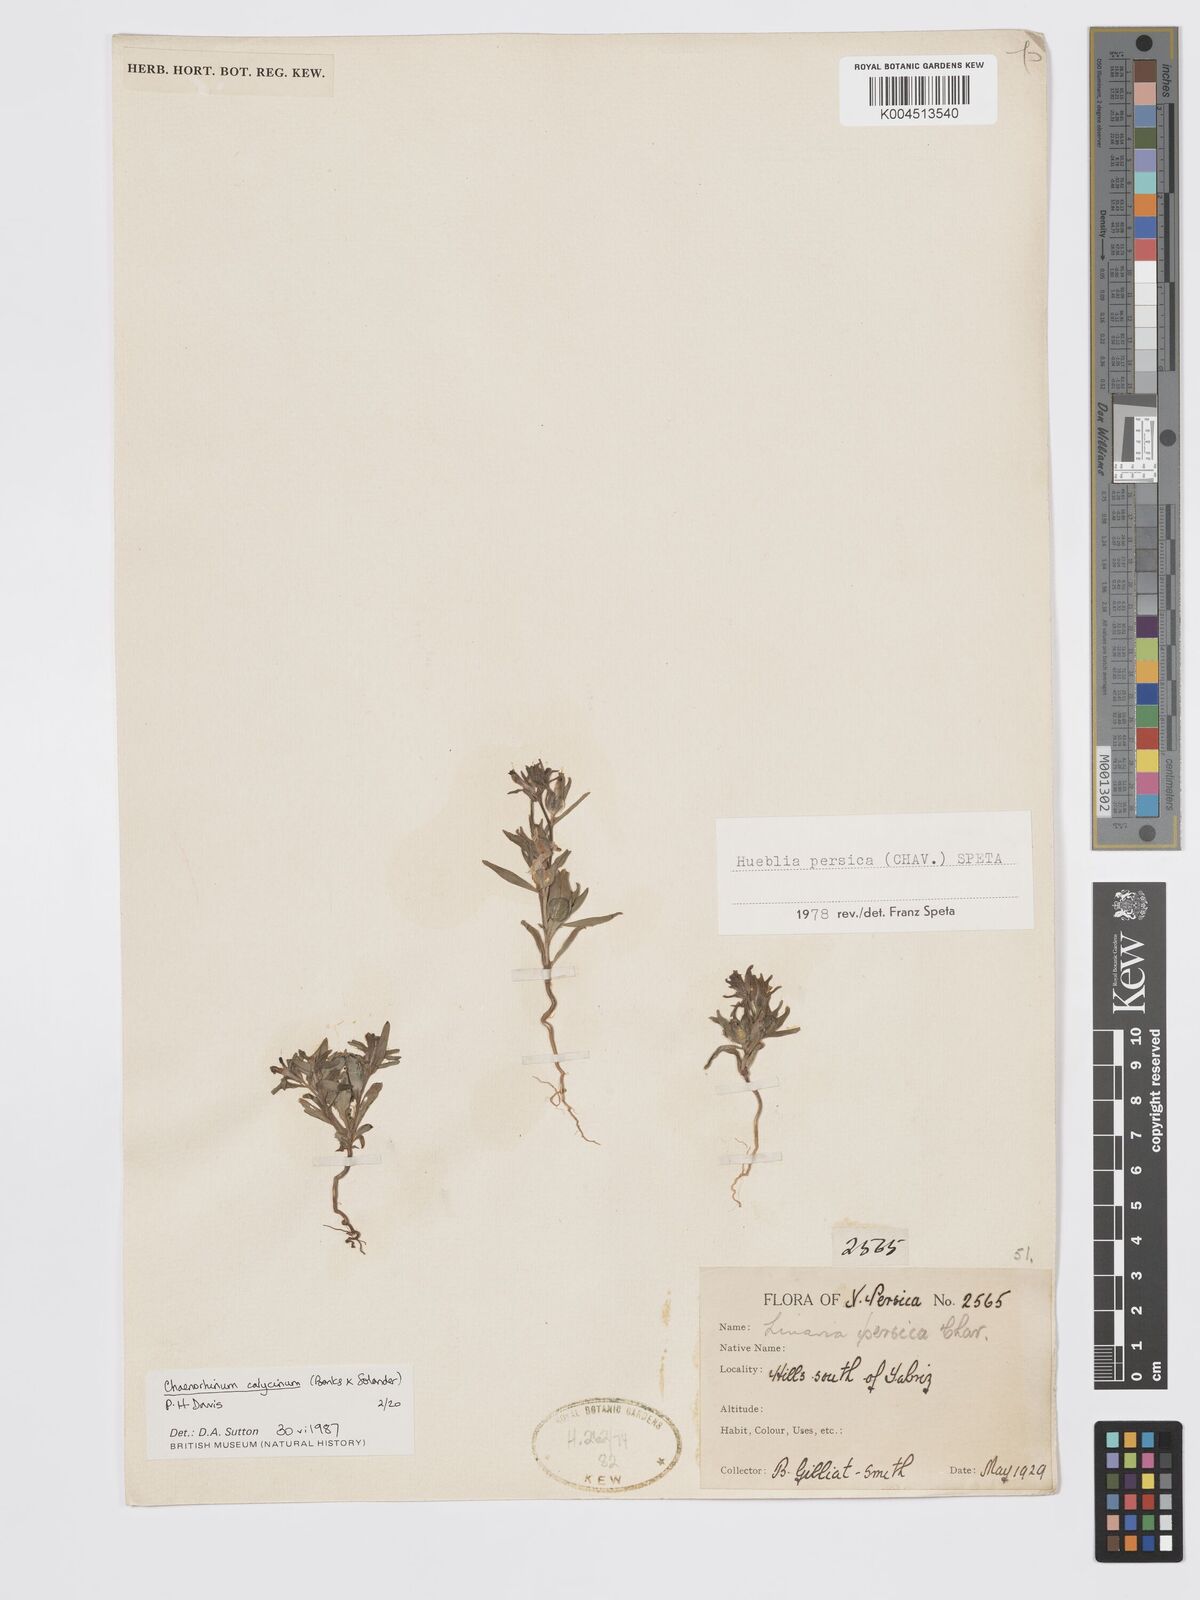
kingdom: Plantae
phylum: Tracheophyta
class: Magnoliopsida
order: Lamiales
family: Plantaginaceae
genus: Chaenorhinum
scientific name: Chaenorhinum calycinum
